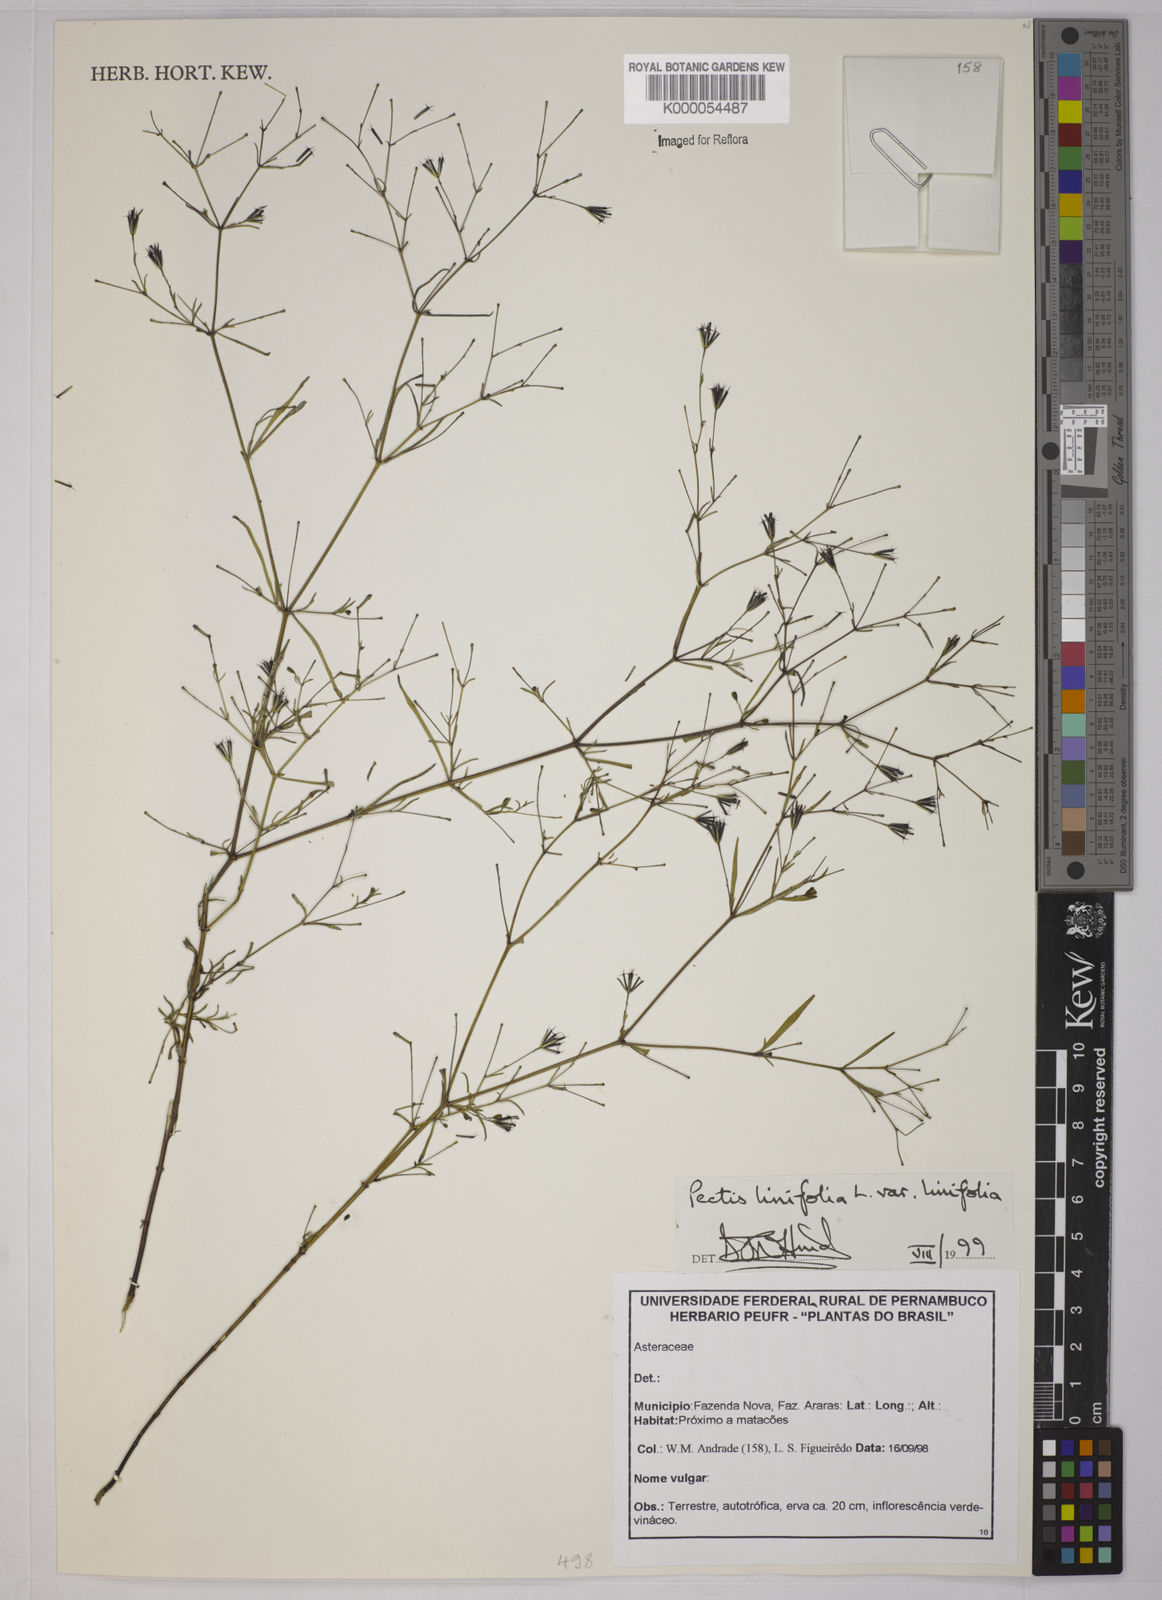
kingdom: Plantae
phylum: Tracheophyta
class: Magnoliopsida
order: Asterales
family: Asteraceae
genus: Pectis
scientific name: Pectis linifolia
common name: Romero macho
